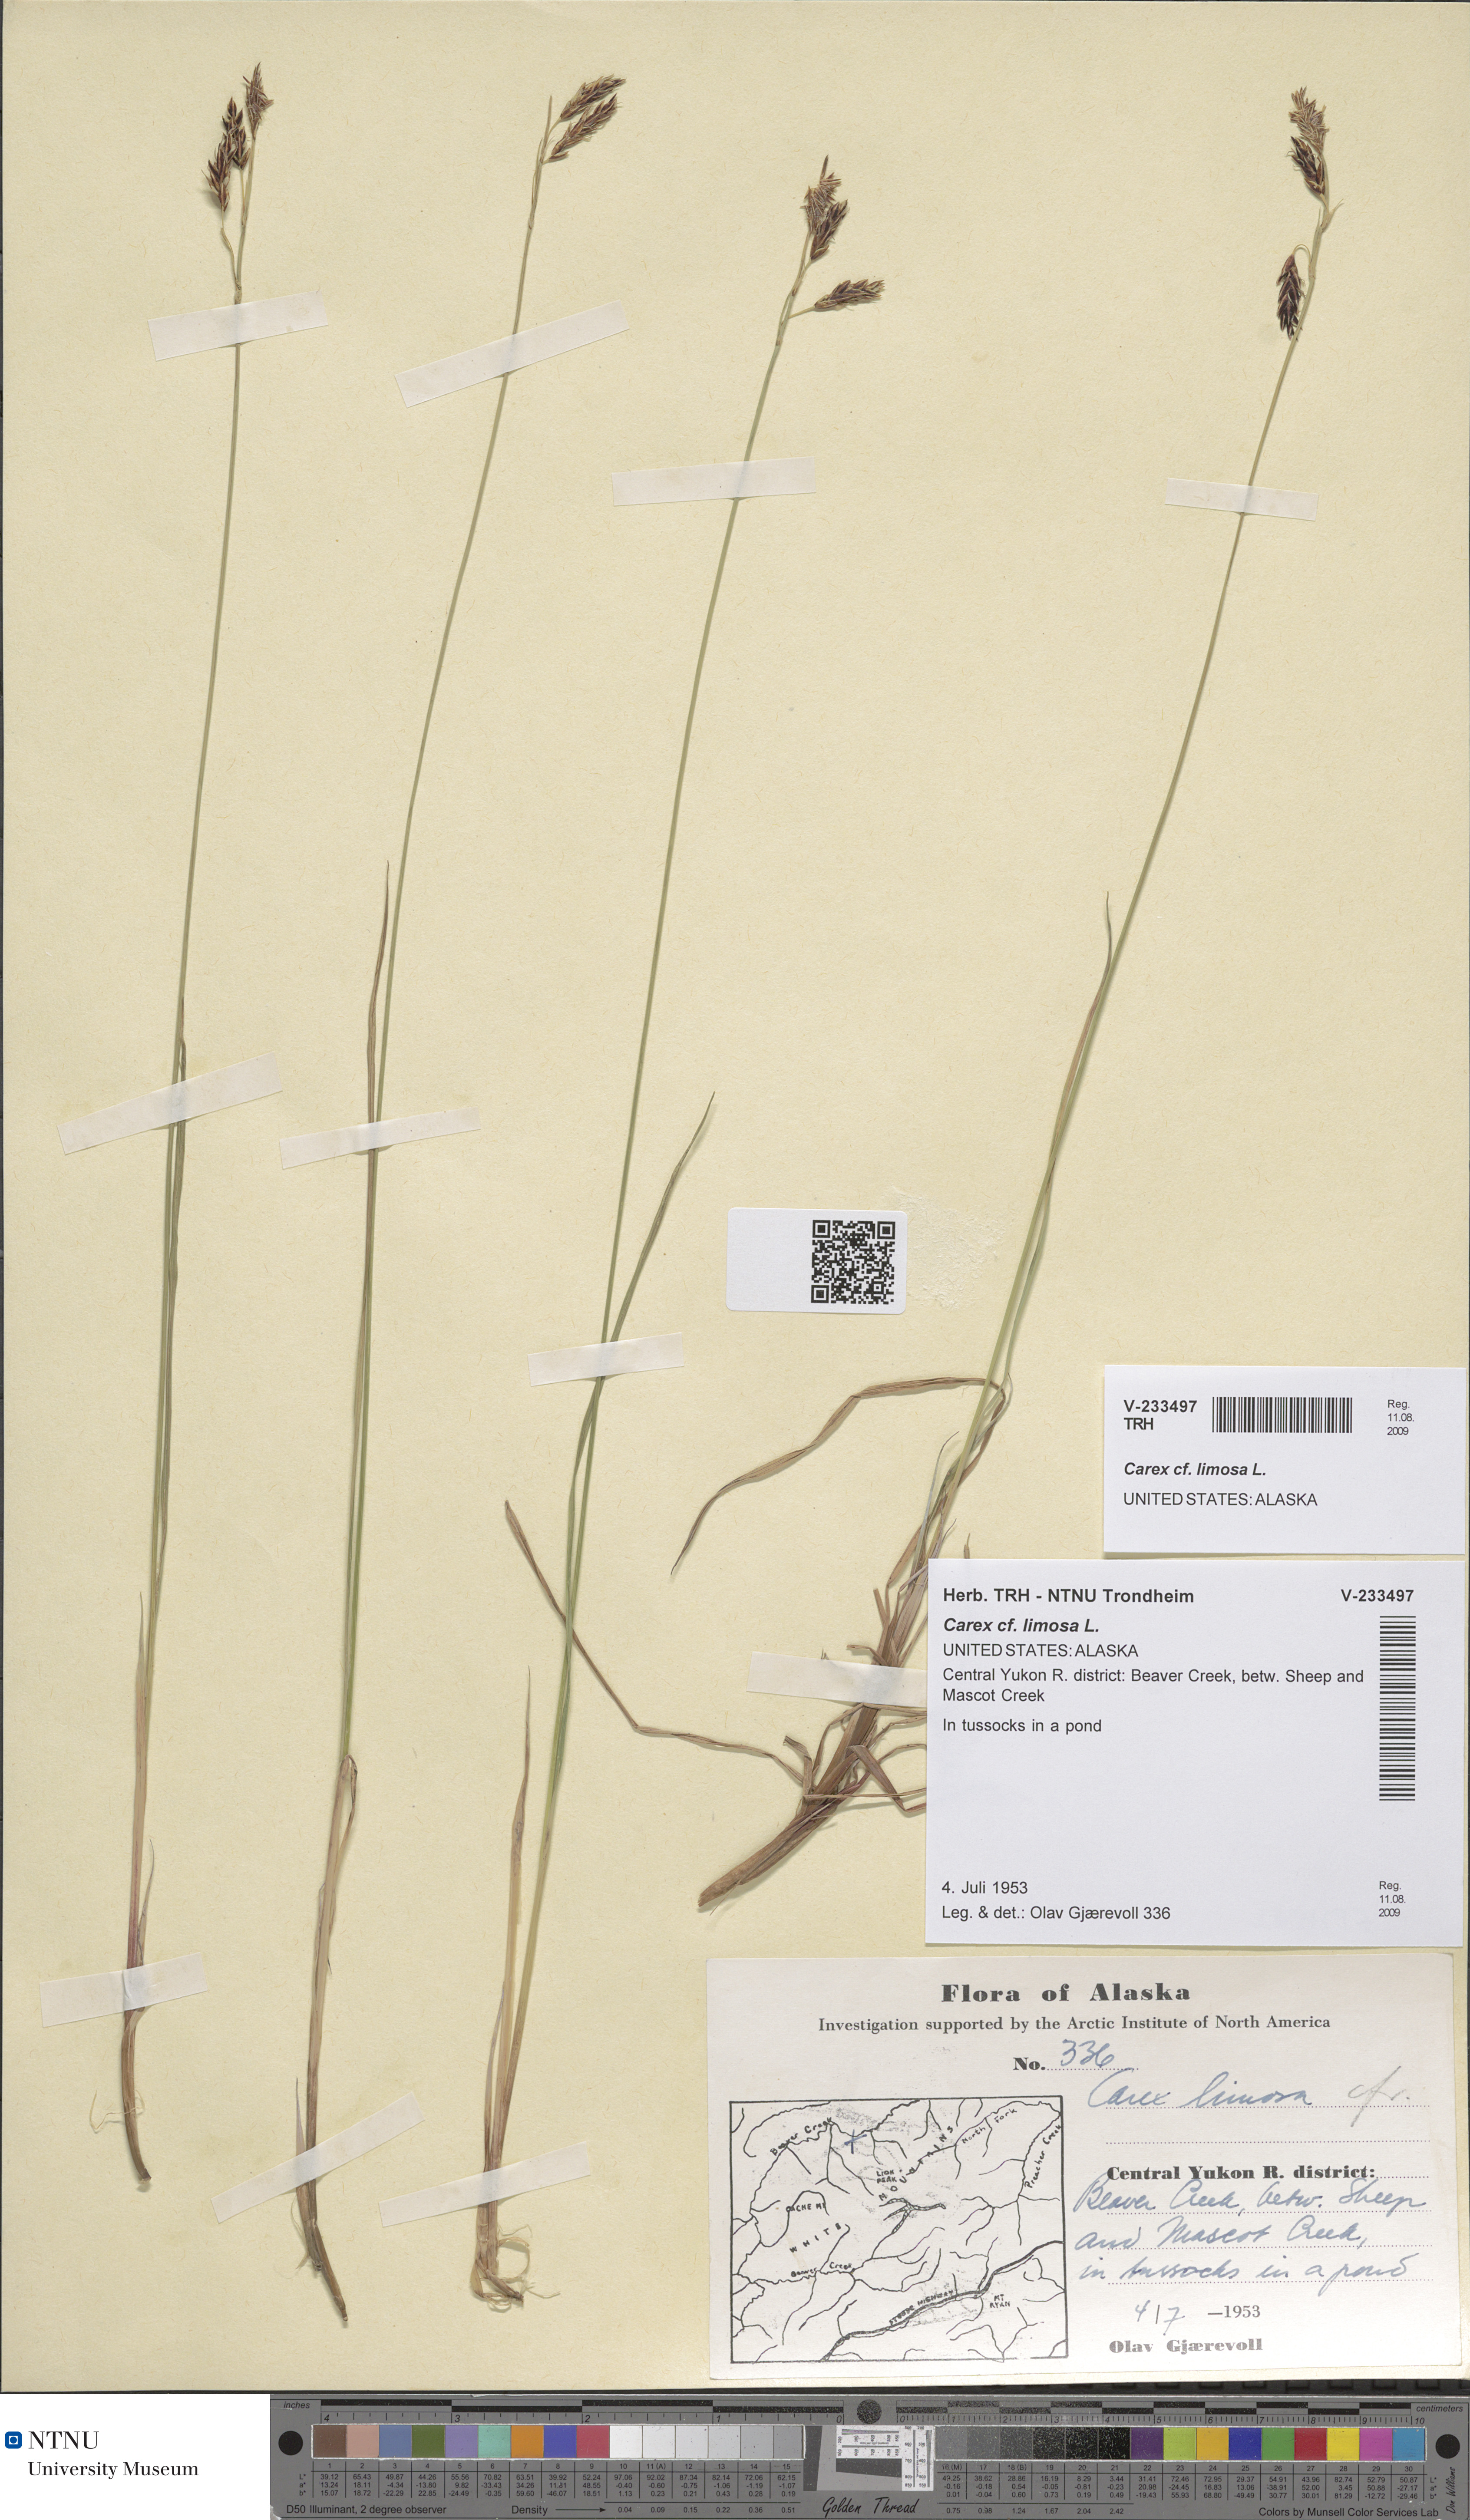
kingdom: Plantae
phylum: Tracheophyta
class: Liliopsida
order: Poales
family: Cyperaceae
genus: Carex
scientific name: Carex limosa
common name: Bog sedge
